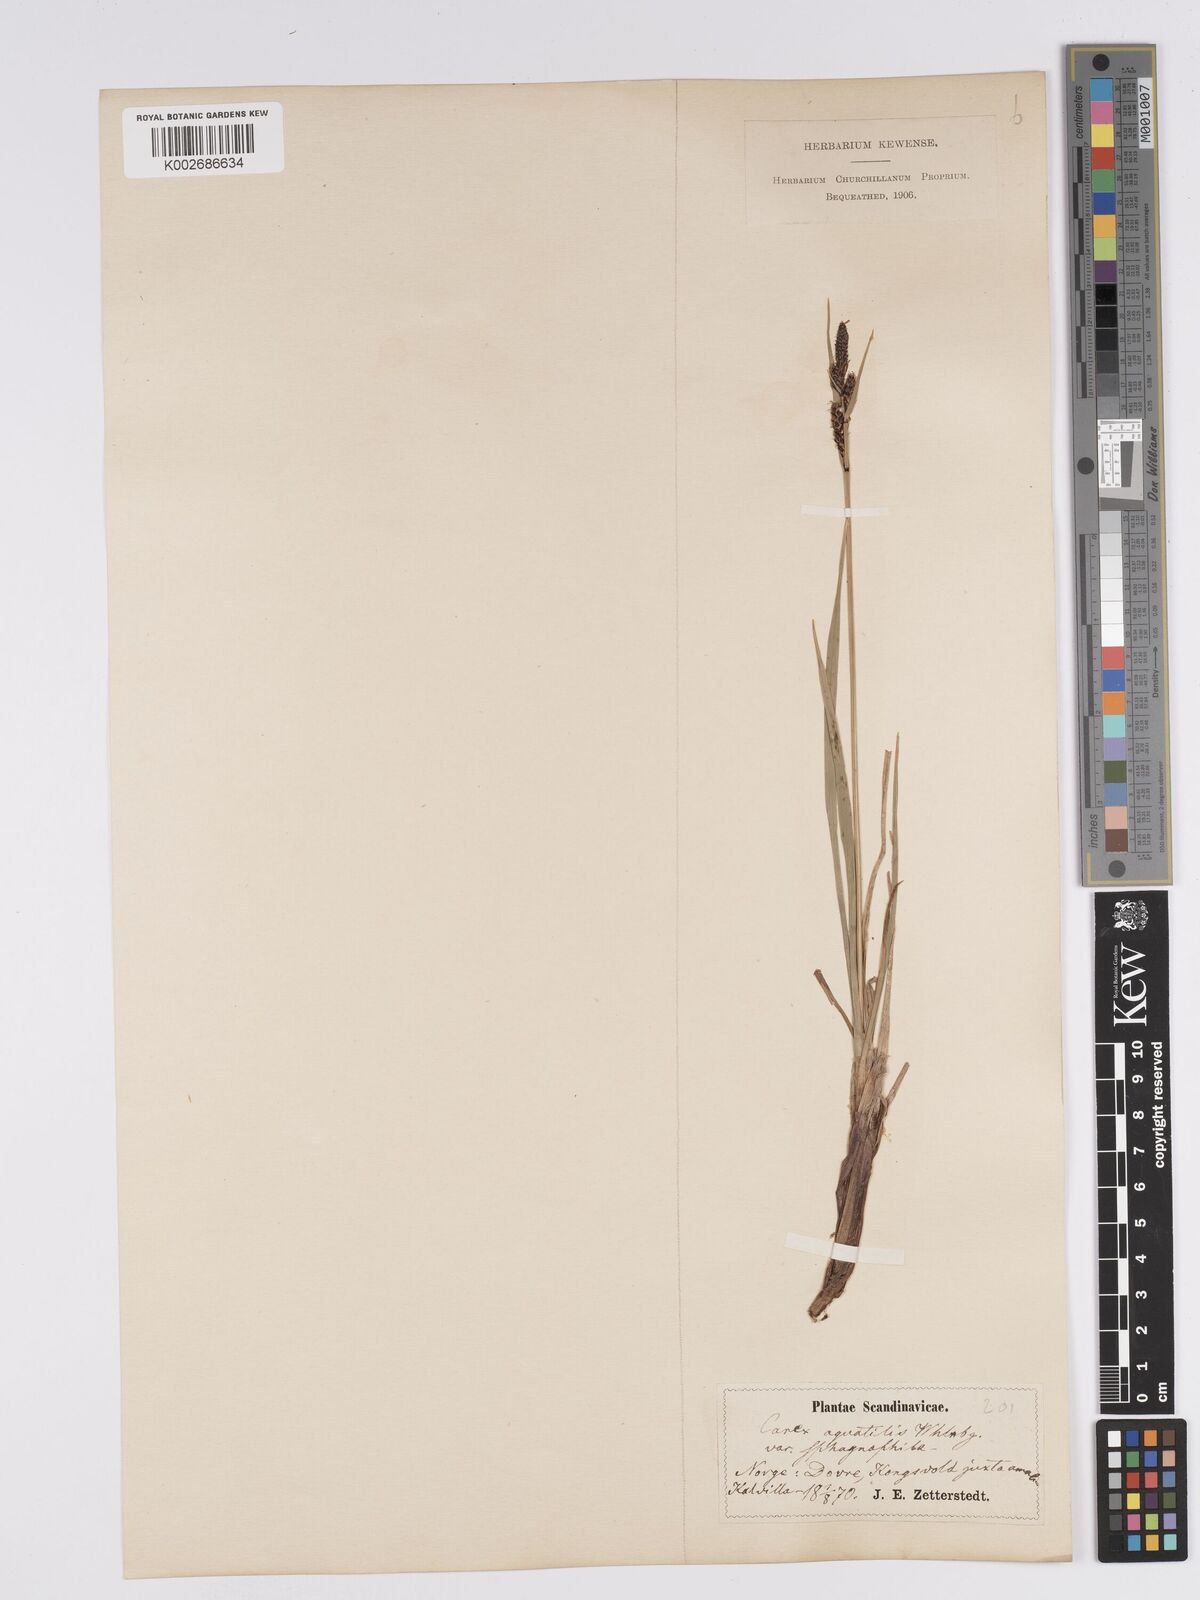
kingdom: Plantae
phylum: Tracheophyta
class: Liliopsida
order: Poales
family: Cyperaceae
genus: Carex
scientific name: Carex aquatilis
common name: Water sedge
